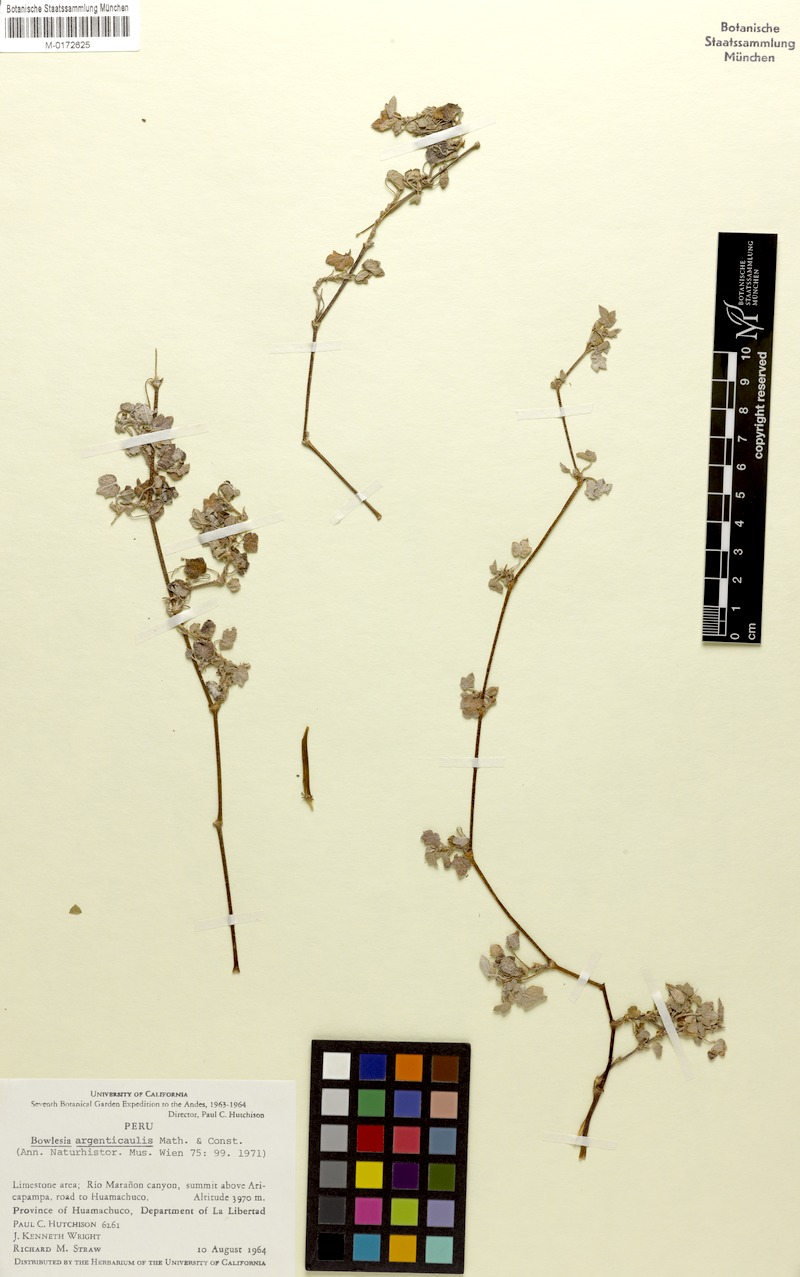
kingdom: Plantae
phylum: Tracheophyta
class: Magnoliopsida
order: Apiales
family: Apiaceae
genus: Bowlesia
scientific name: Bowlesia argenticaulis
